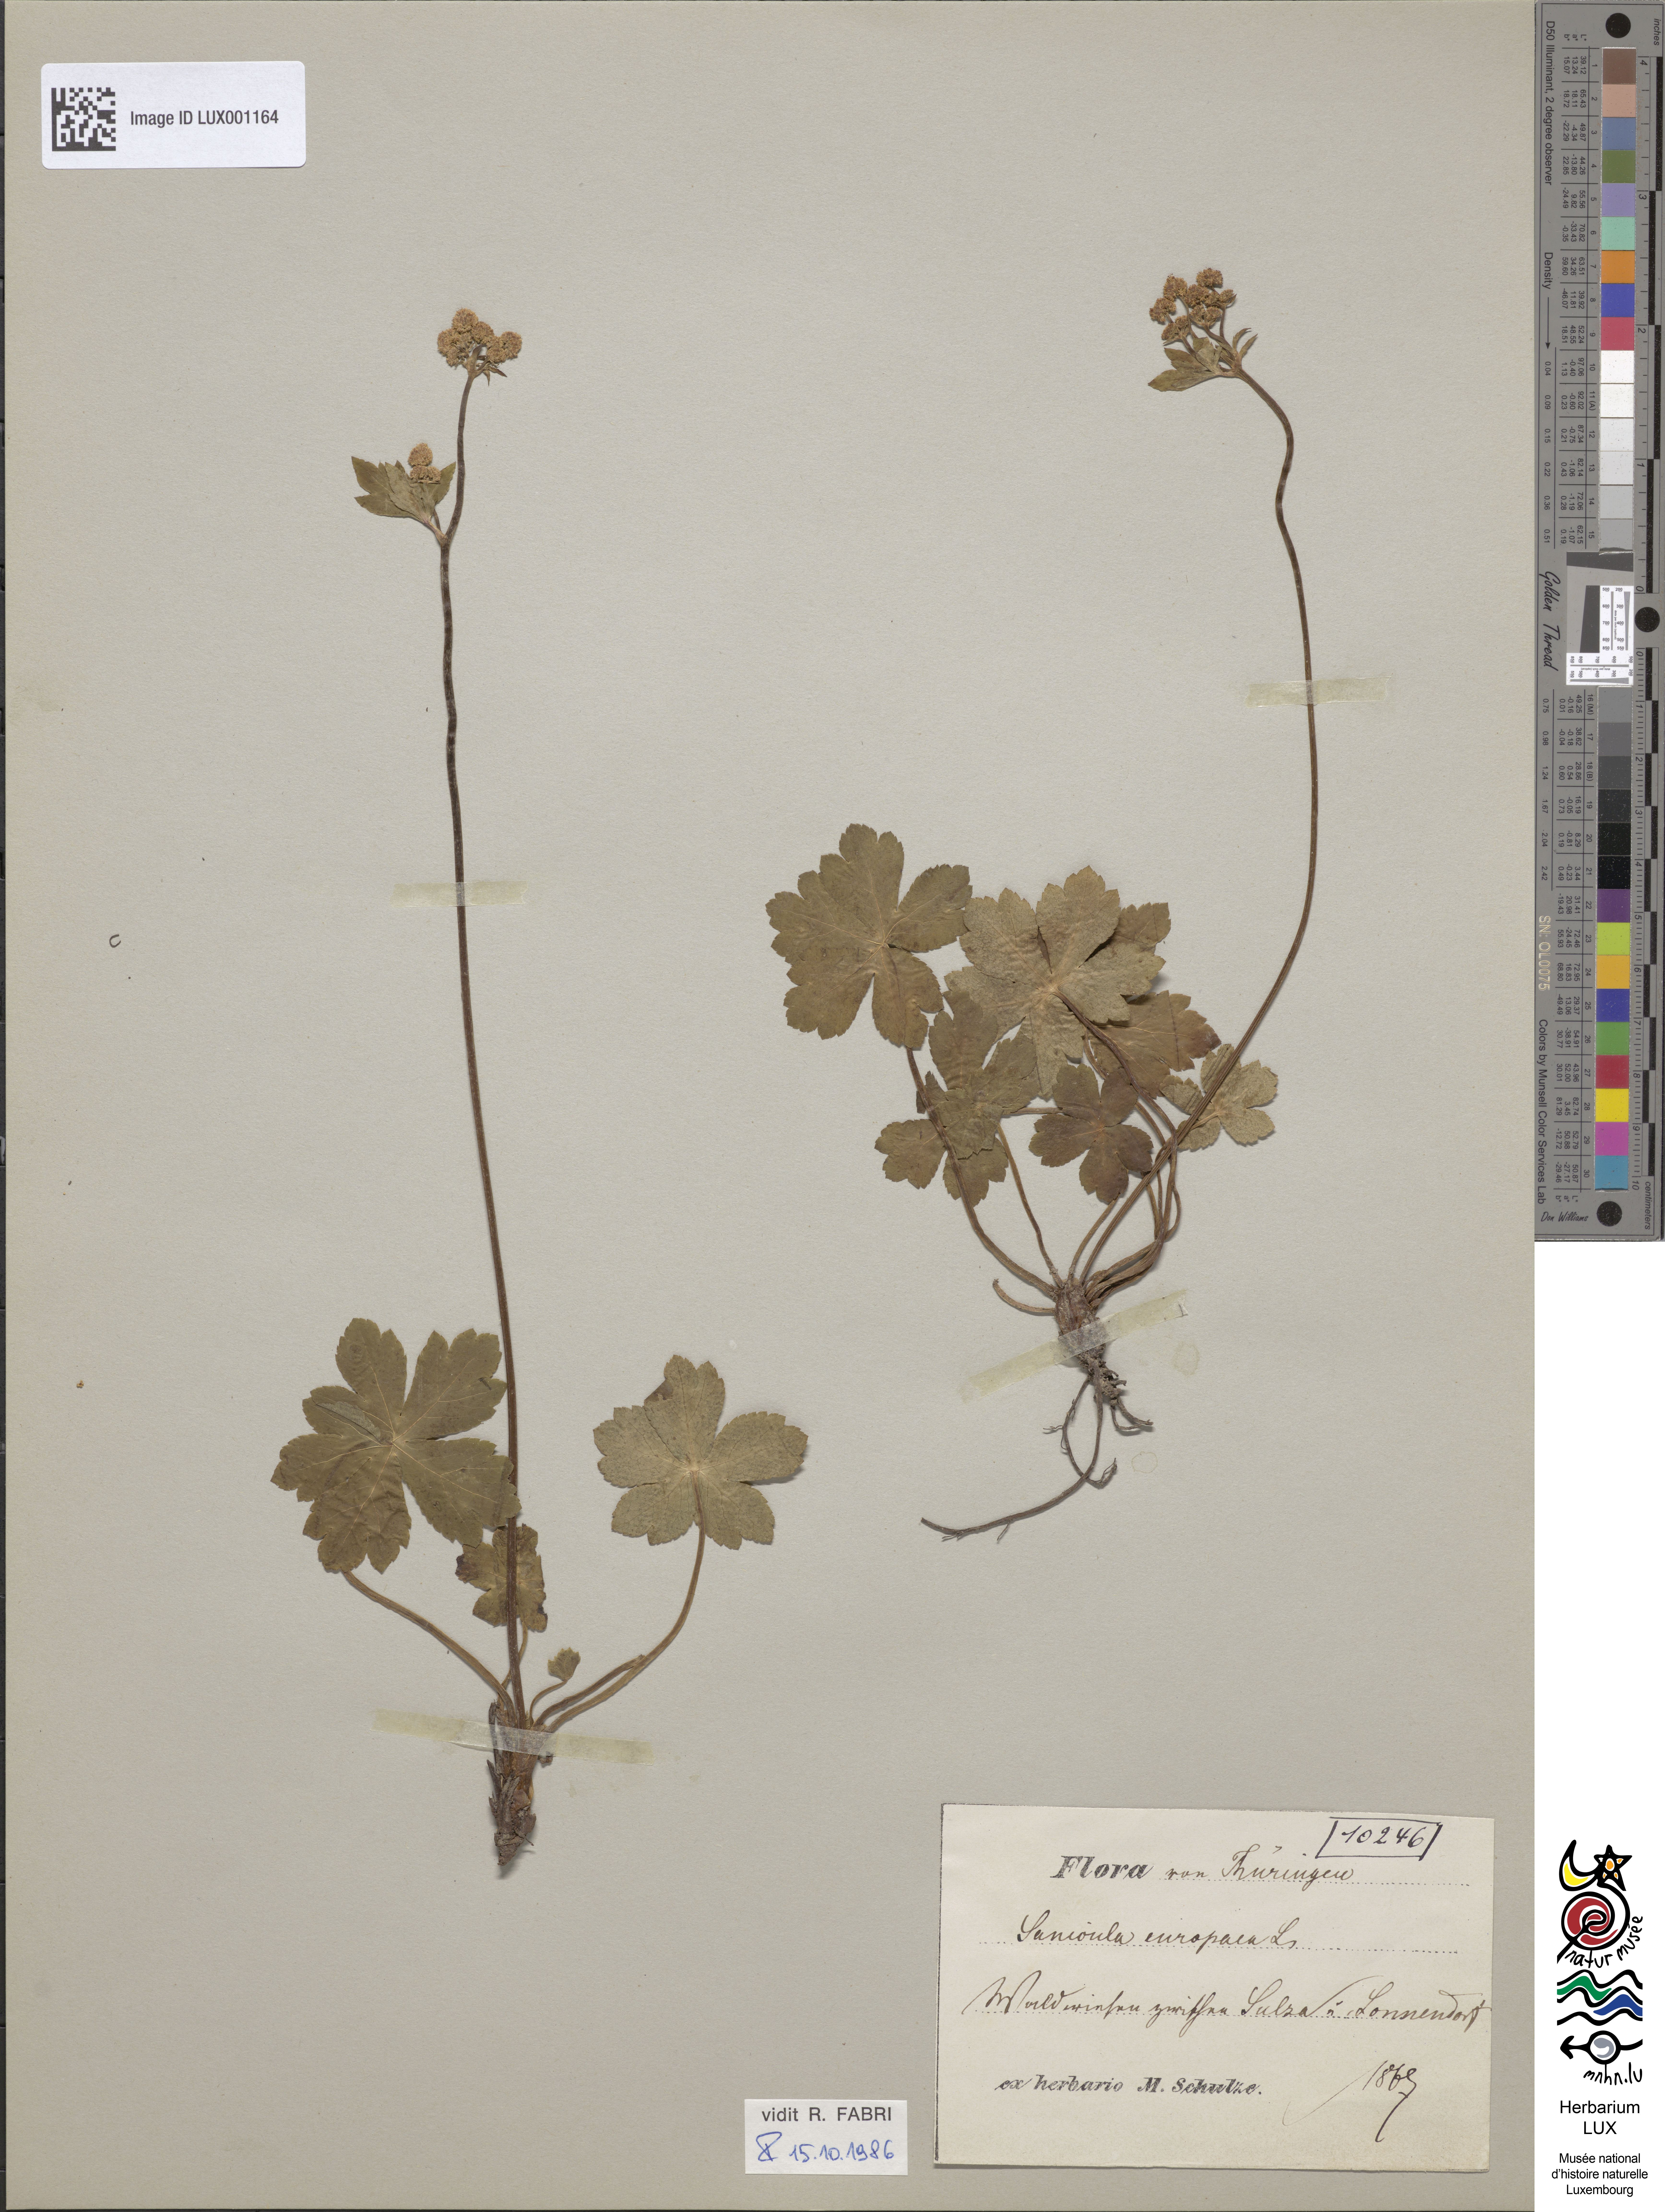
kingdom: Plantae
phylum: Tracheophyta
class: Magnoliopsida
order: Apiales
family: Apiaceae
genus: Sanicula
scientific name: Sanicula europaea
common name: Sanicle
